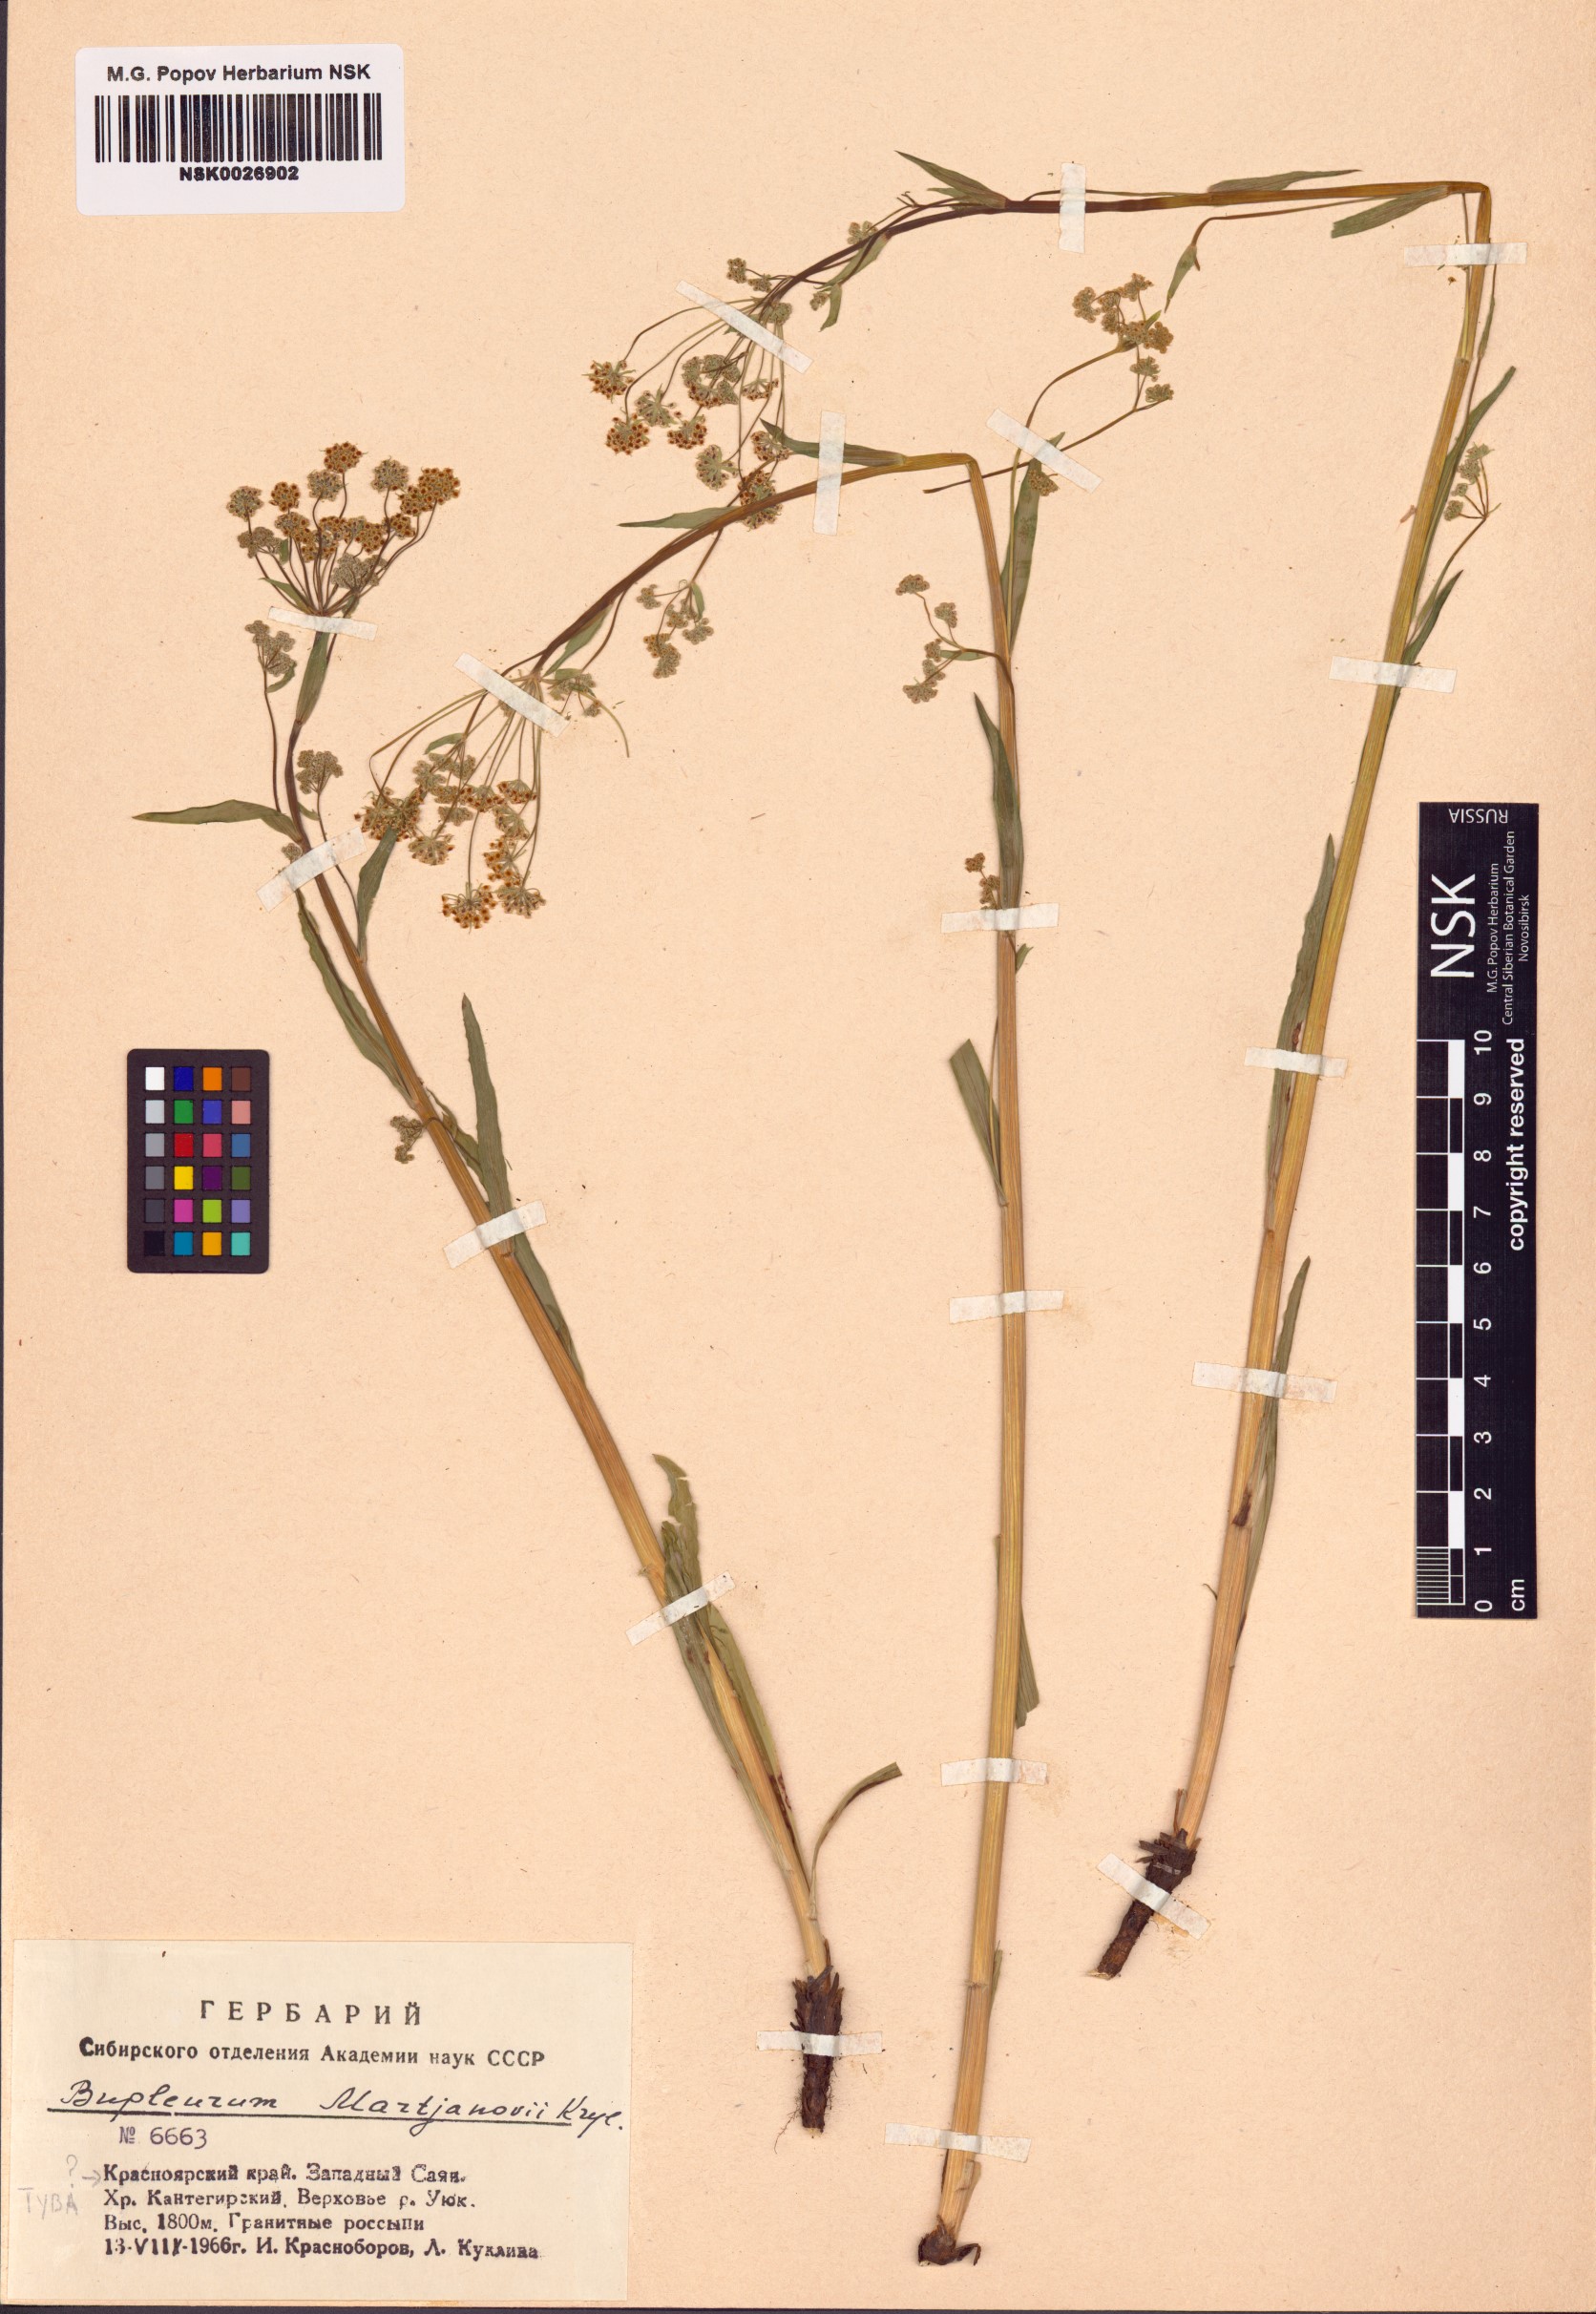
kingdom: Plantae
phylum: Tracheophyta
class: Magnoliopsida
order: Apiales
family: Apiaceae
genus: Bupleurum
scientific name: Bupleurum martjanovii
